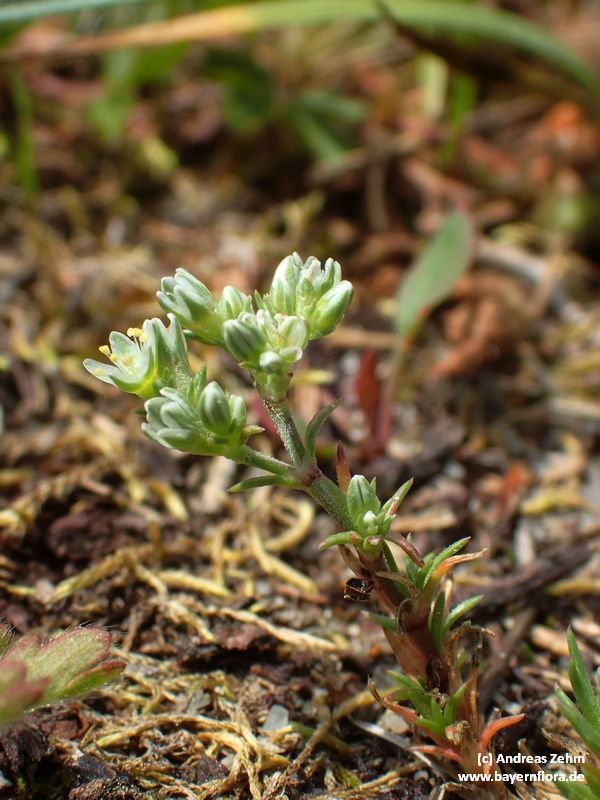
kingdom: Plantae
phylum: Tracheophyta
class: Magnoliopsida
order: Caryophyllales
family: Caryophyllaceae
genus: Scleranthus
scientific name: Scleranthus perennis
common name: Perennial knawel
